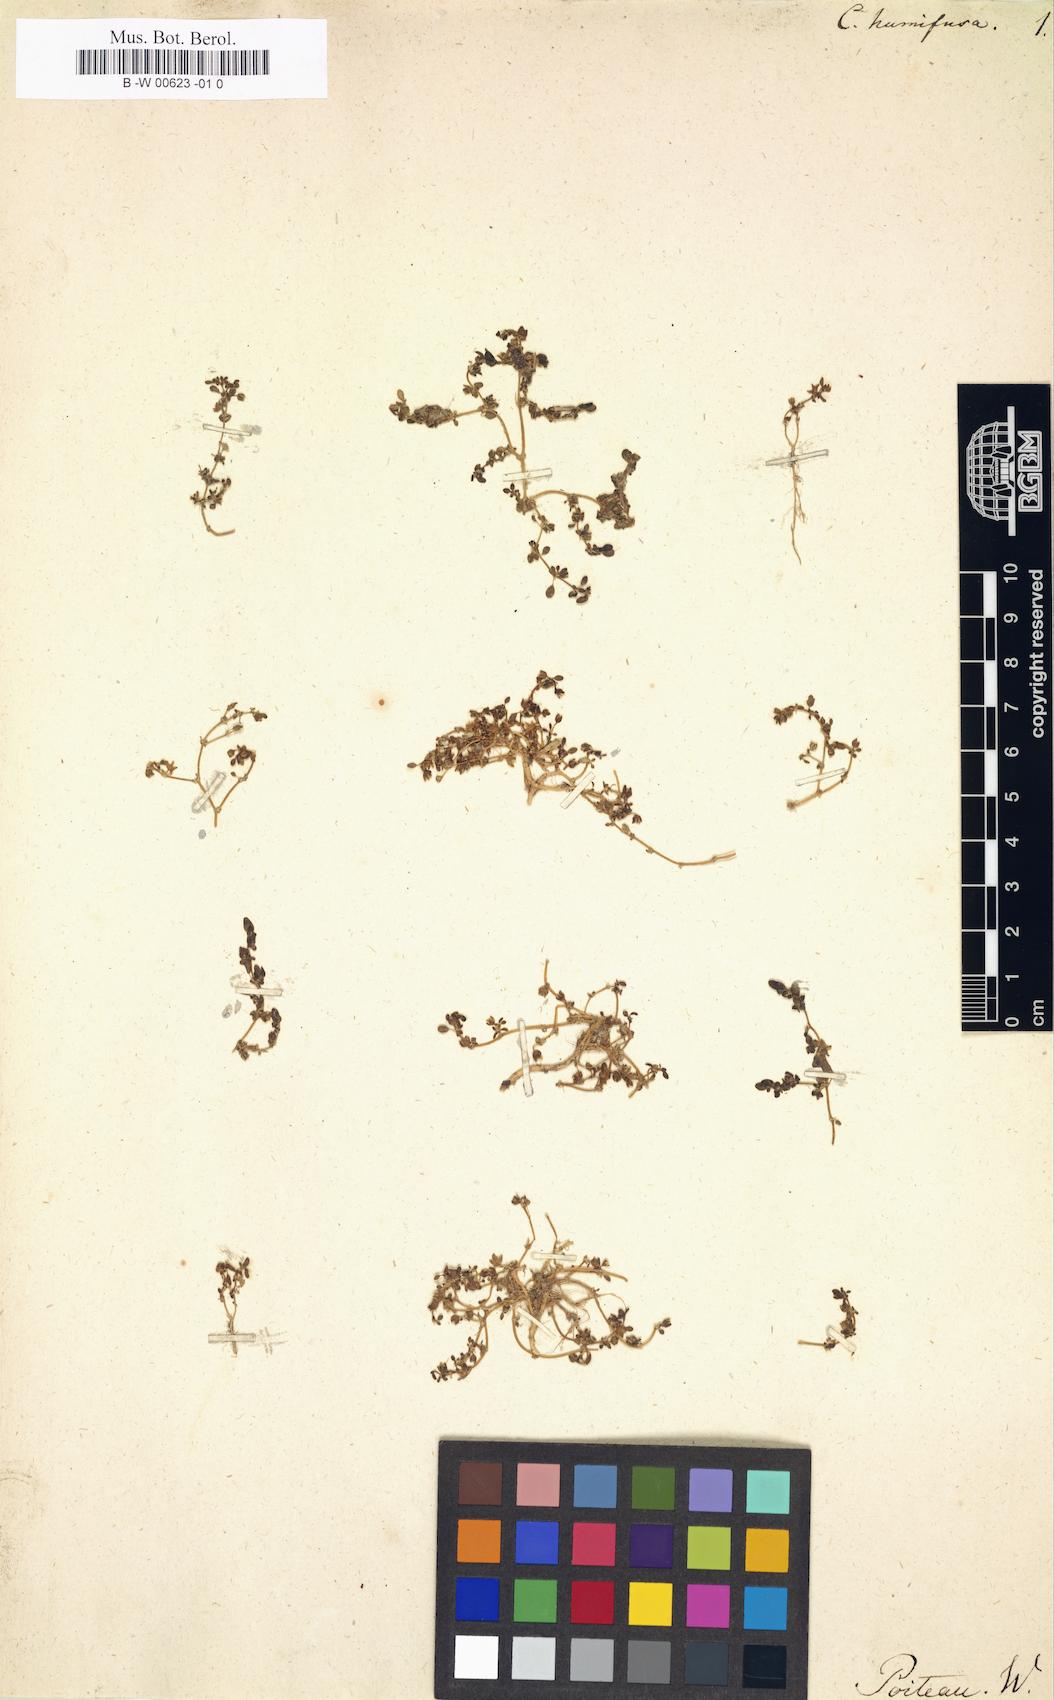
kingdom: Plantae
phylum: Tracheophyta
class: Magnoliopsida
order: Caryophyllales
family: Aizoaceae
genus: Sesuvium
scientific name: Sesuvium humifusum
